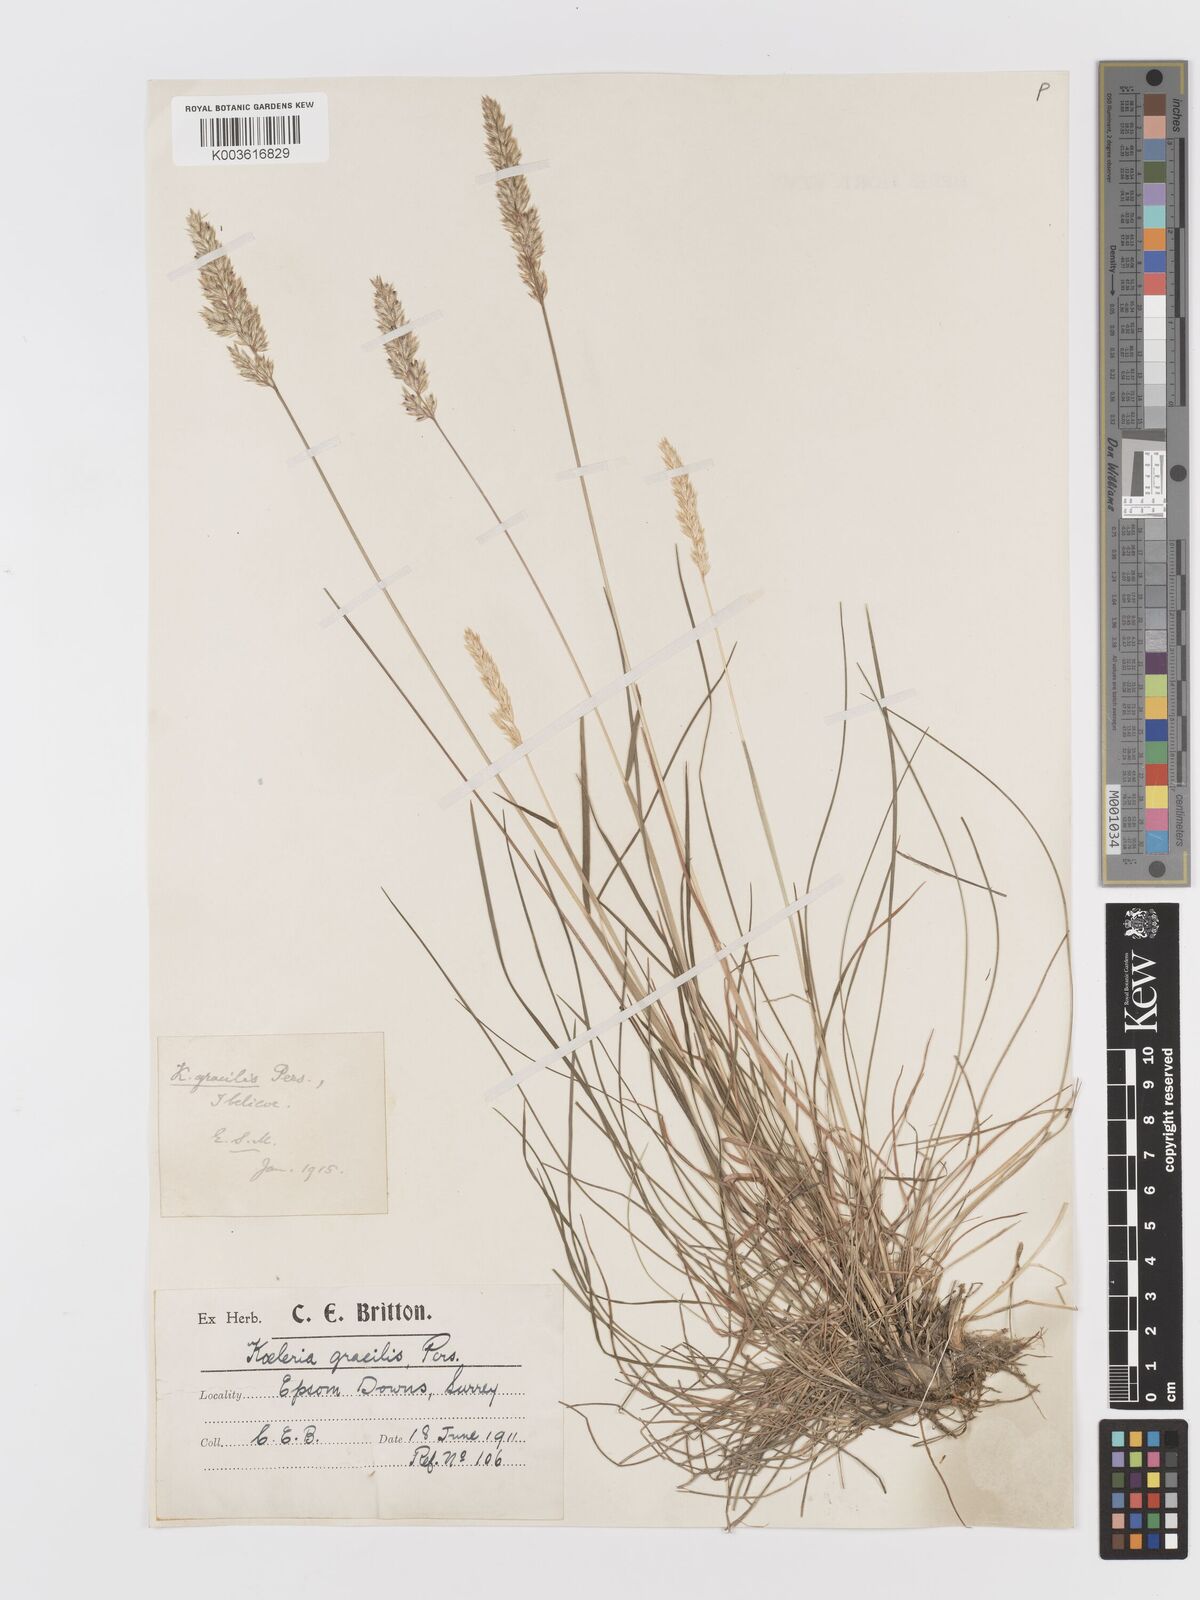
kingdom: Plantae
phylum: Tracheophyta
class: Liliopsida
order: Poales
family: Poaceae
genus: Koeleria
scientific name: Koeleria macrantha
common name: Crested hair-grass
